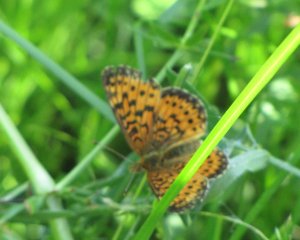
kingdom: Animalia
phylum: Arthropoda
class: Insecta
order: Lepidoptera
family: Nymphalidae
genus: Boloria
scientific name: Boloria selene
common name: Silver-bordered Fritillary
